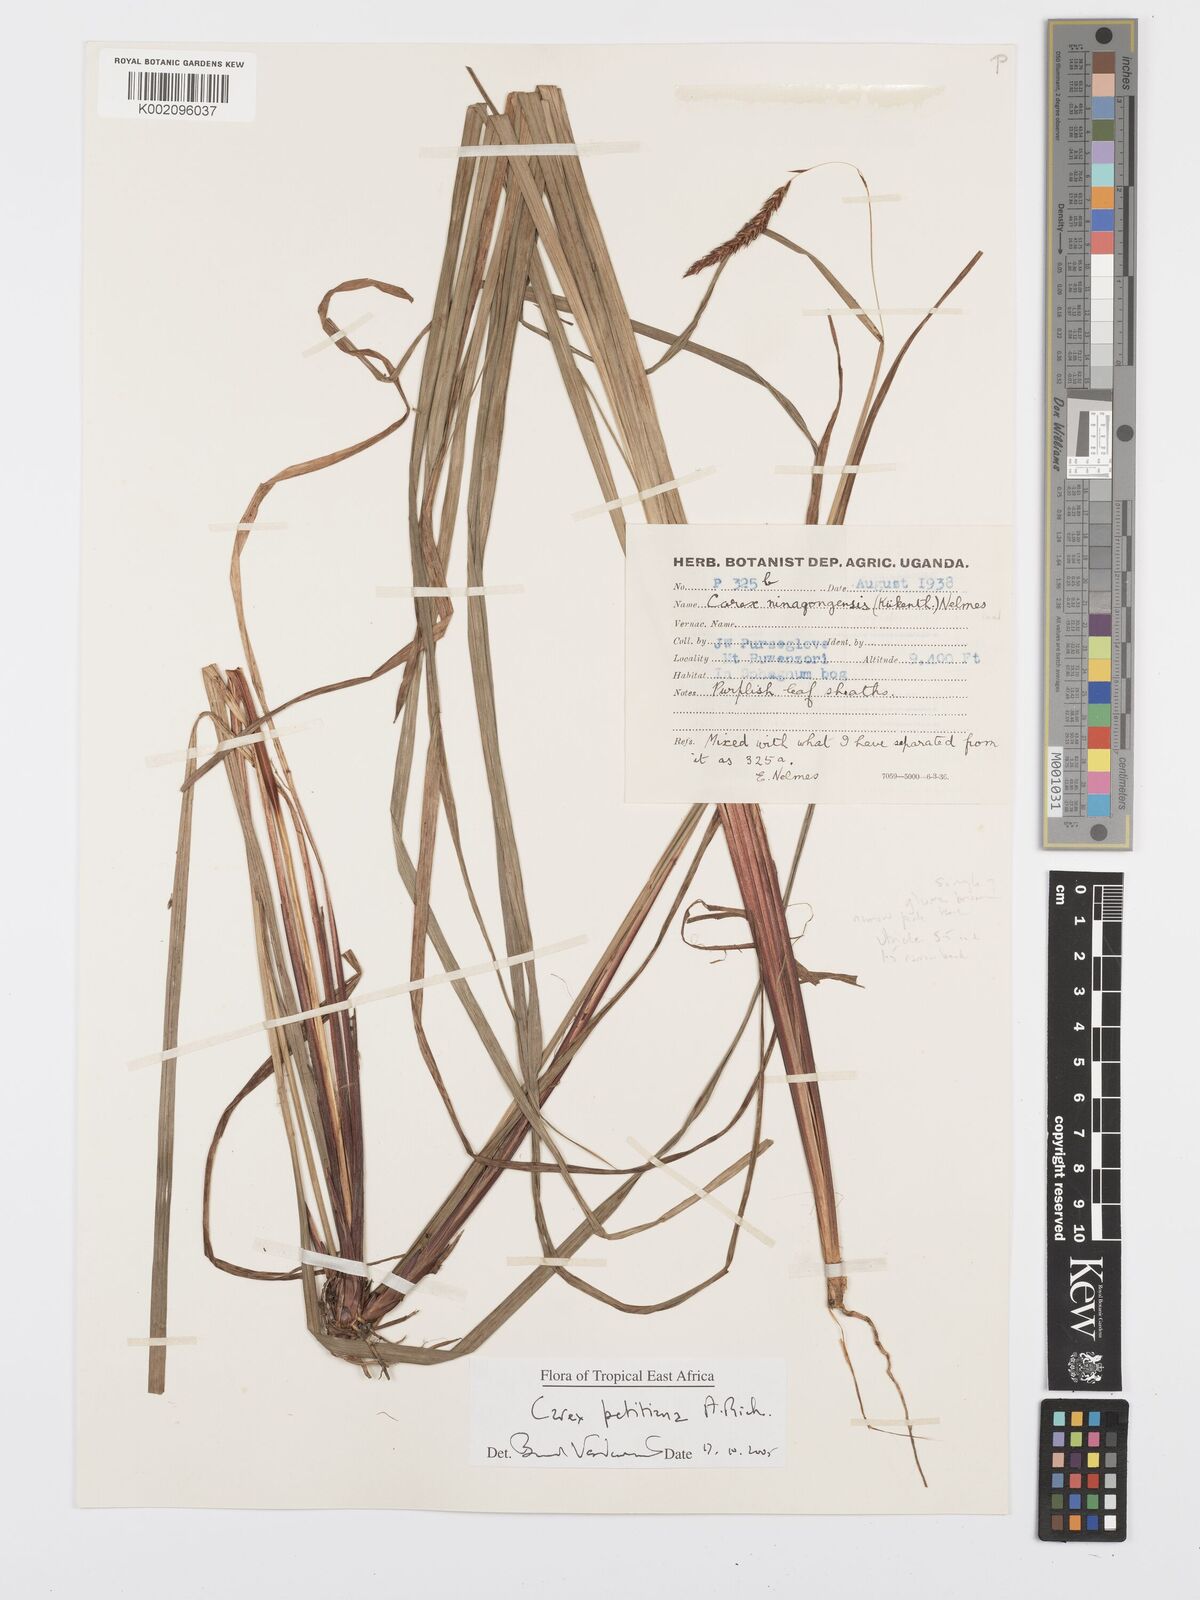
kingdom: Plantae
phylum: Tracheophyta
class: Liliopsida
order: Poales
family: Cyperaceae
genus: Carex
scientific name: Carex mannii
